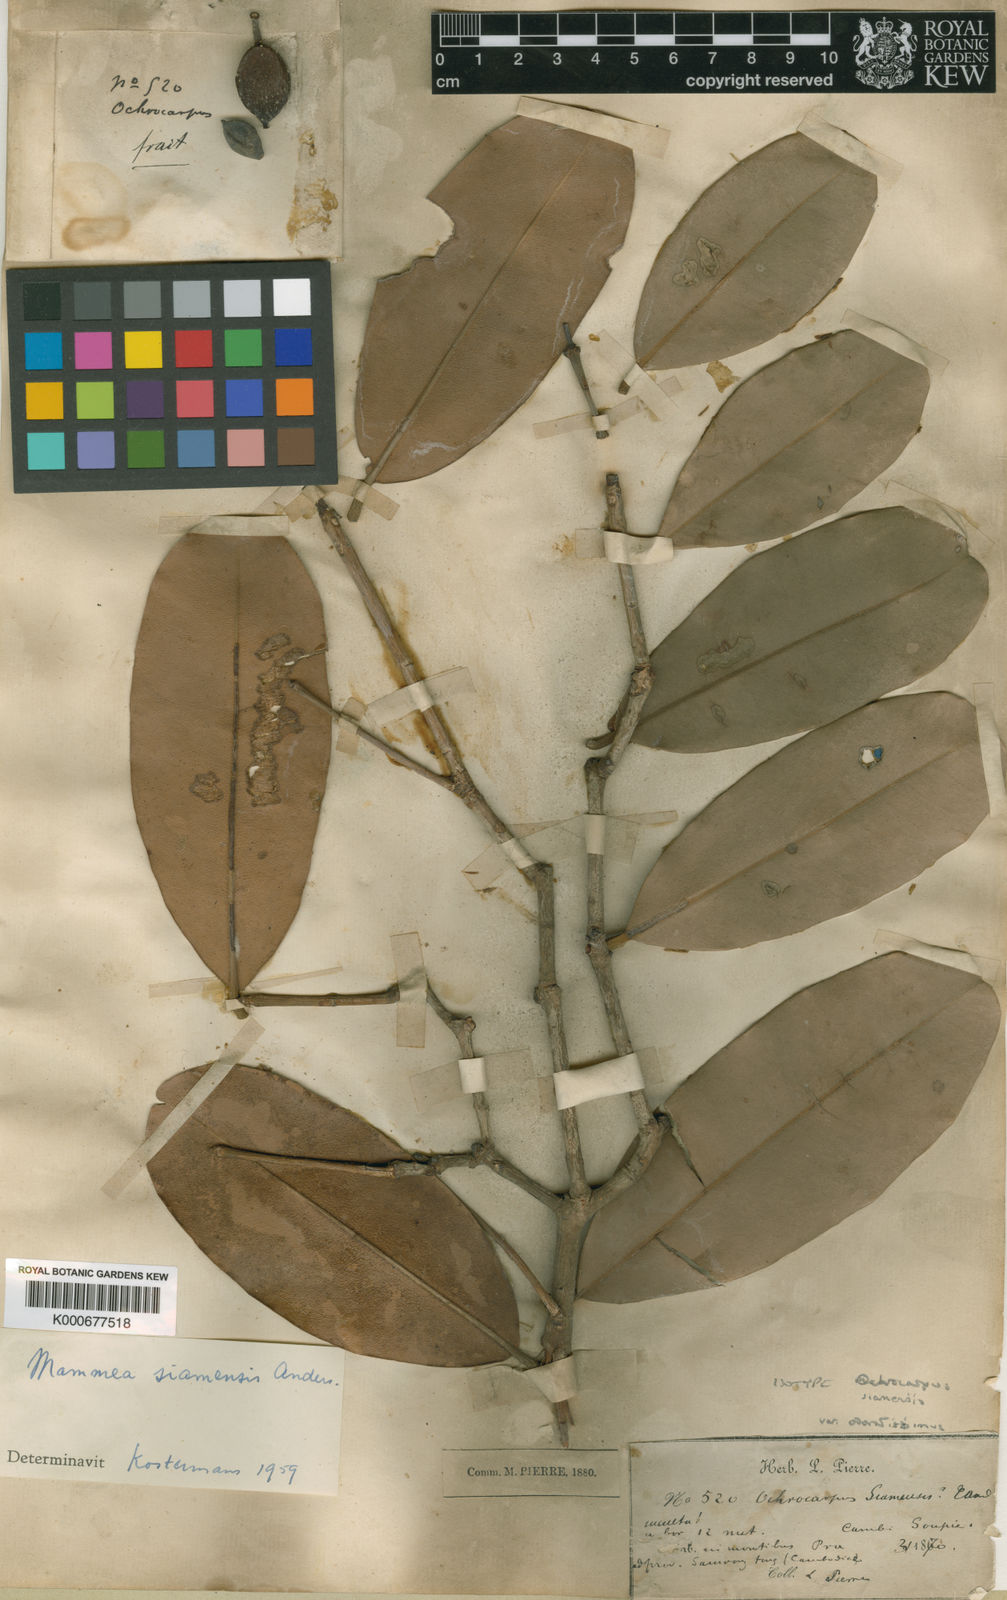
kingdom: Plantae
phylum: Tracheophyta
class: Magnoliopsida
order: Malpighiales
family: Calophyllaceae
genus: Mammea
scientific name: Mammea siamensis
